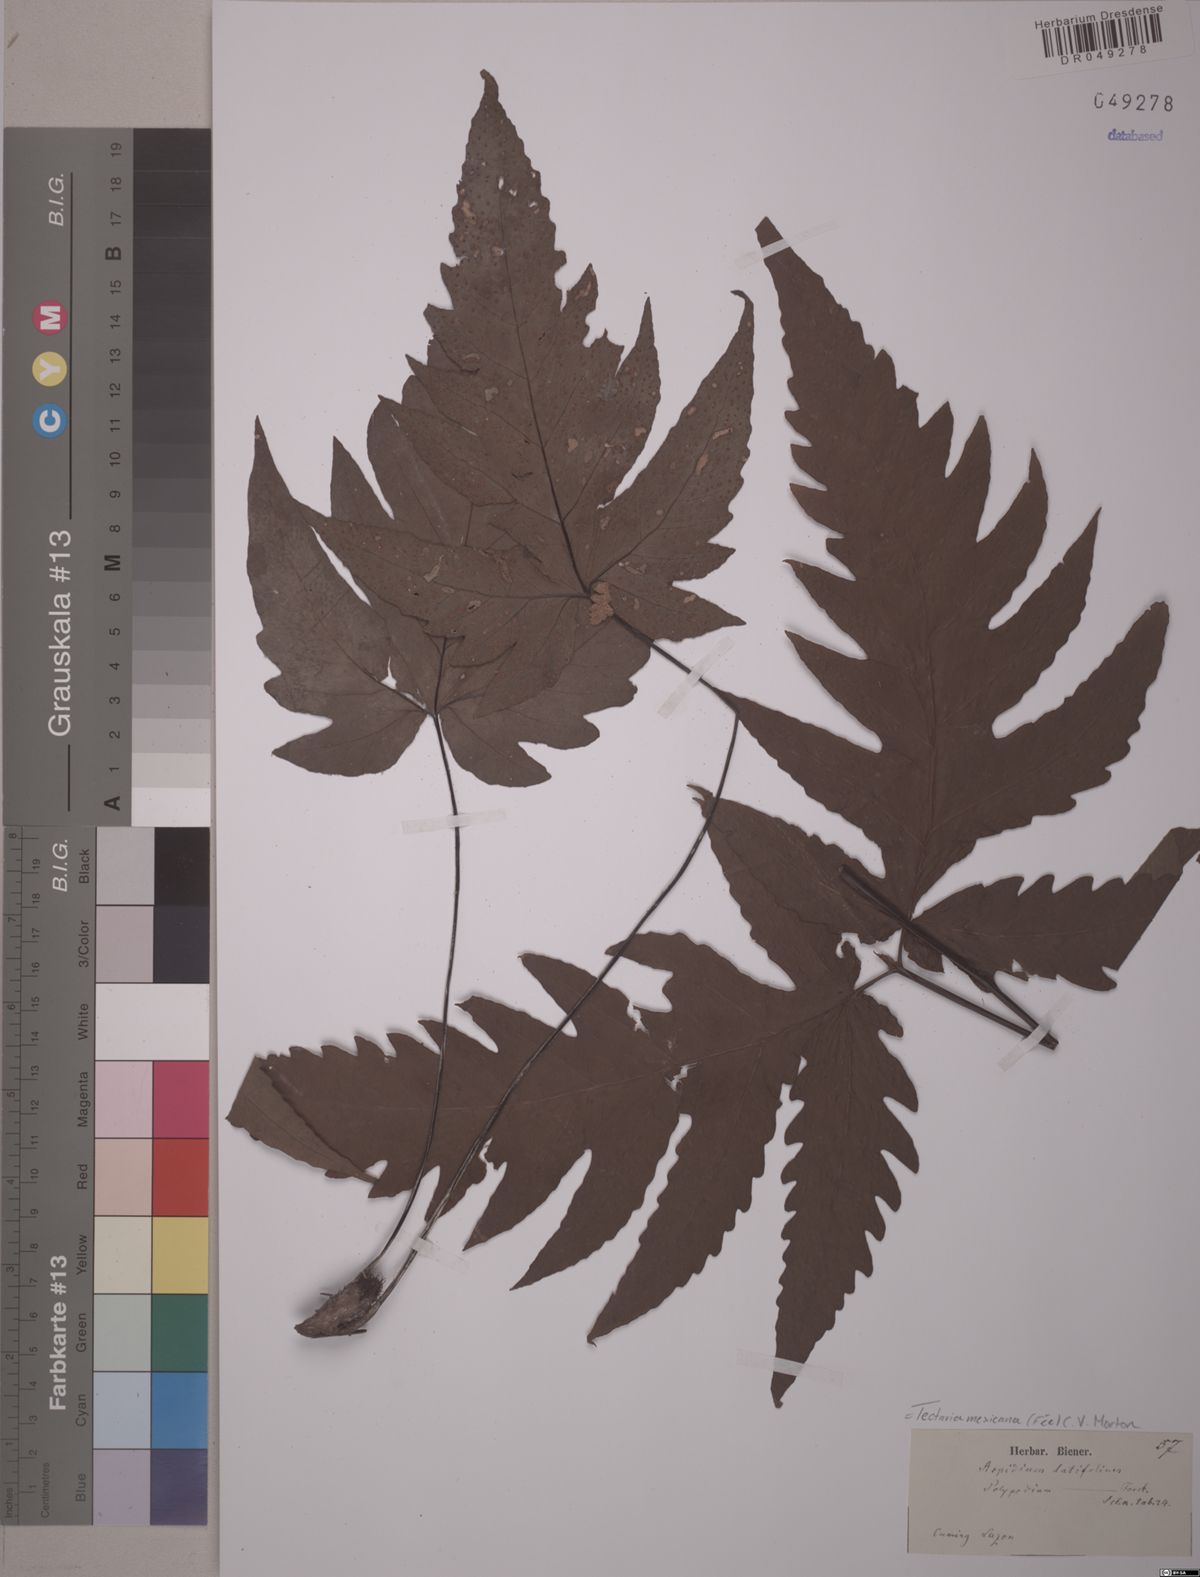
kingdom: Plantae
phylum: Tracheophyta
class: Polypodiopsida
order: Polypodiales
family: Tectariaceae
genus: Tectaria
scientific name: Tectaria mexicana
